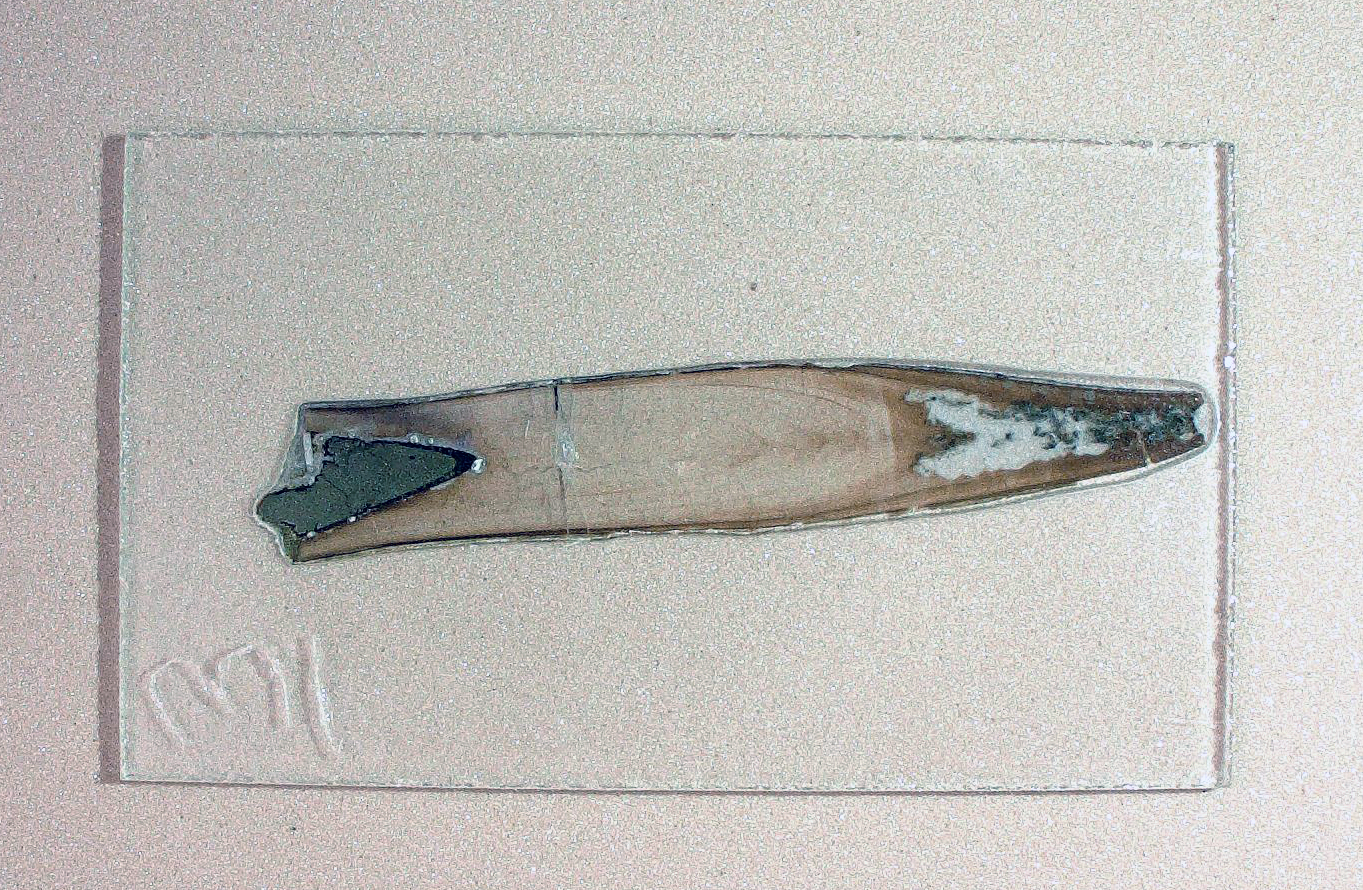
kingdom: Animalia
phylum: Mollusca
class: Cephalopoda
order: Belemnitida
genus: Pleurobelus
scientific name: Pleurobelus compressus
